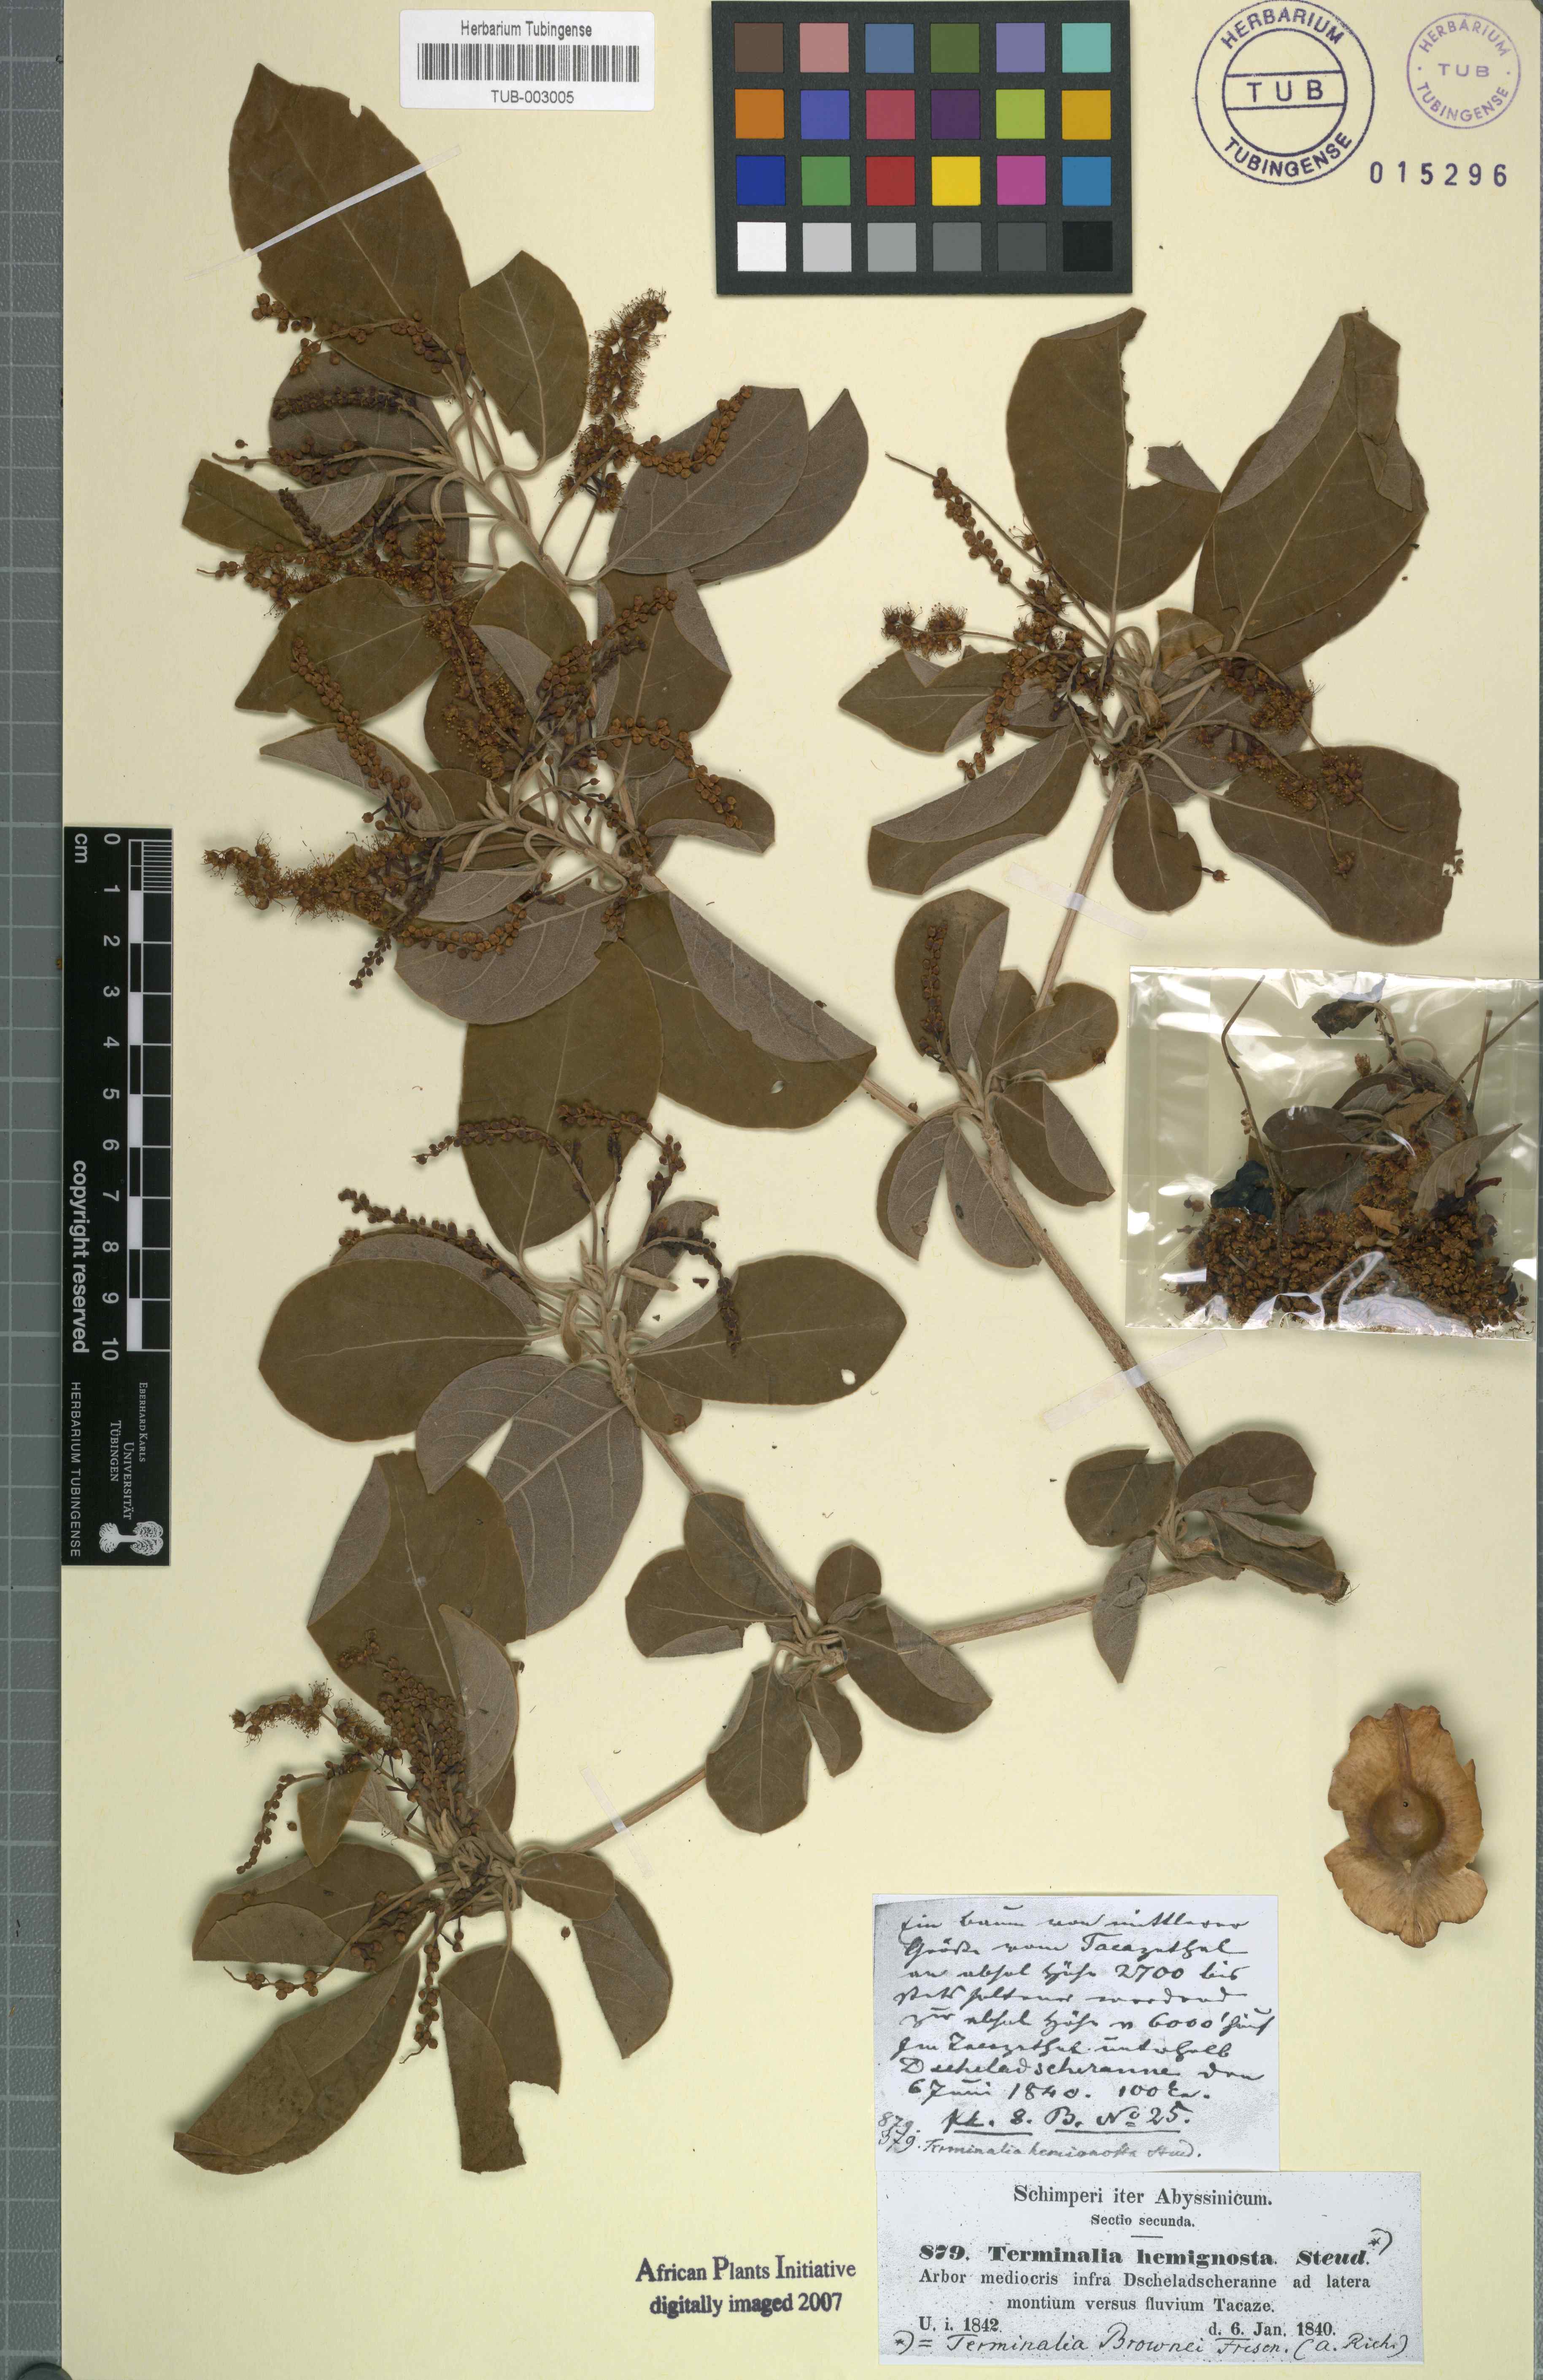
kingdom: Plantae
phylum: Tracheophyta
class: Magnoliopsida
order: Myrtales
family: Combretaceae
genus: Terminalia
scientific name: Terminalia brownii
